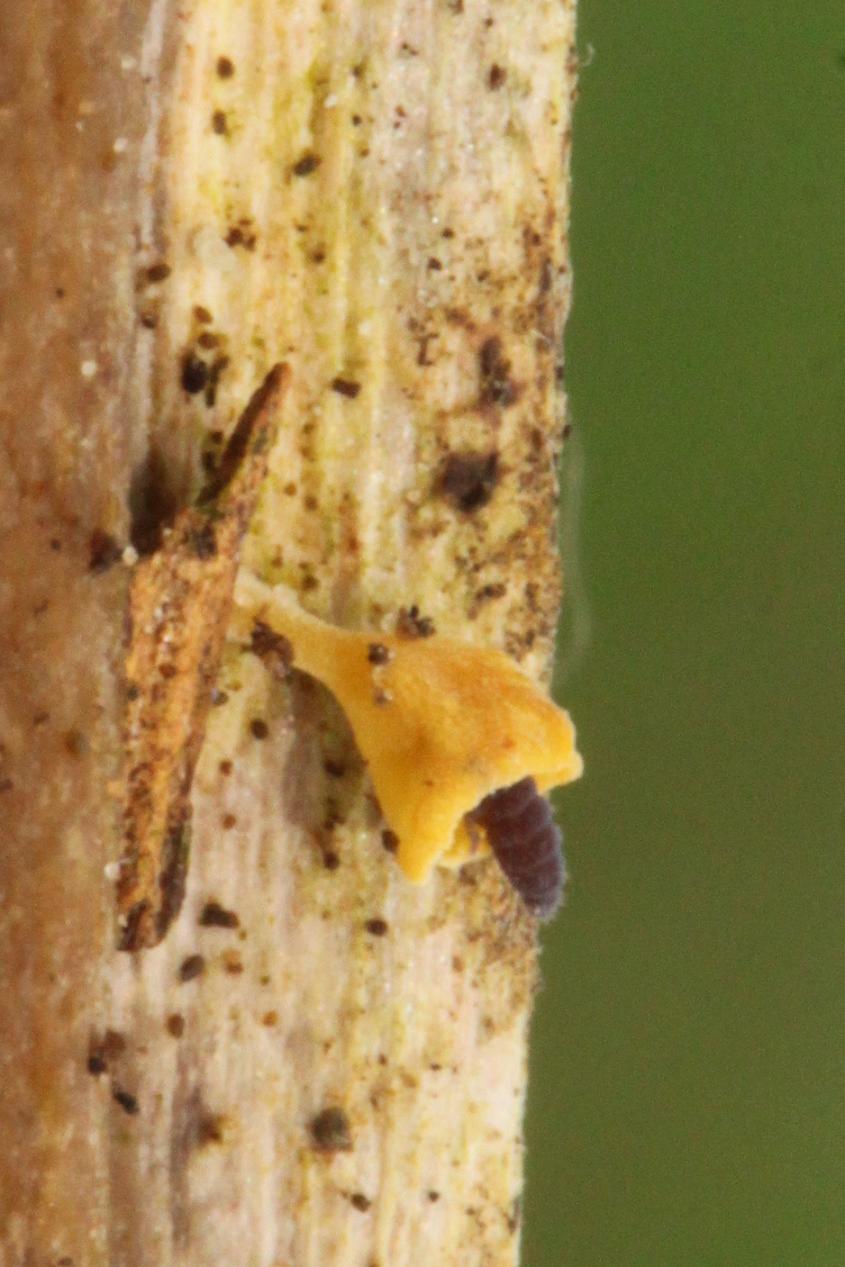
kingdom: Fungi
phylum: Basidiomycota
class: Agaricomycetes
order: Agaricales
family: Marasmiaceae
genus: Calyptella
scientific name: Calyptella campanula
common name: gul nældehue
